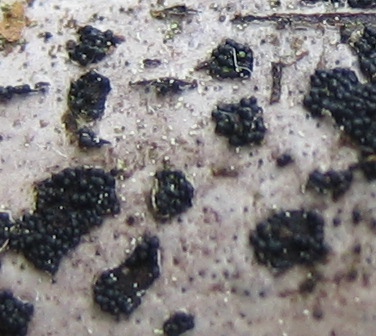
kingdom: Fungi
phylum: Ascomycota
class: Sordariomycetes
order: Sordariales
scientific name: Sordariales
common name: kernesvampordenen
